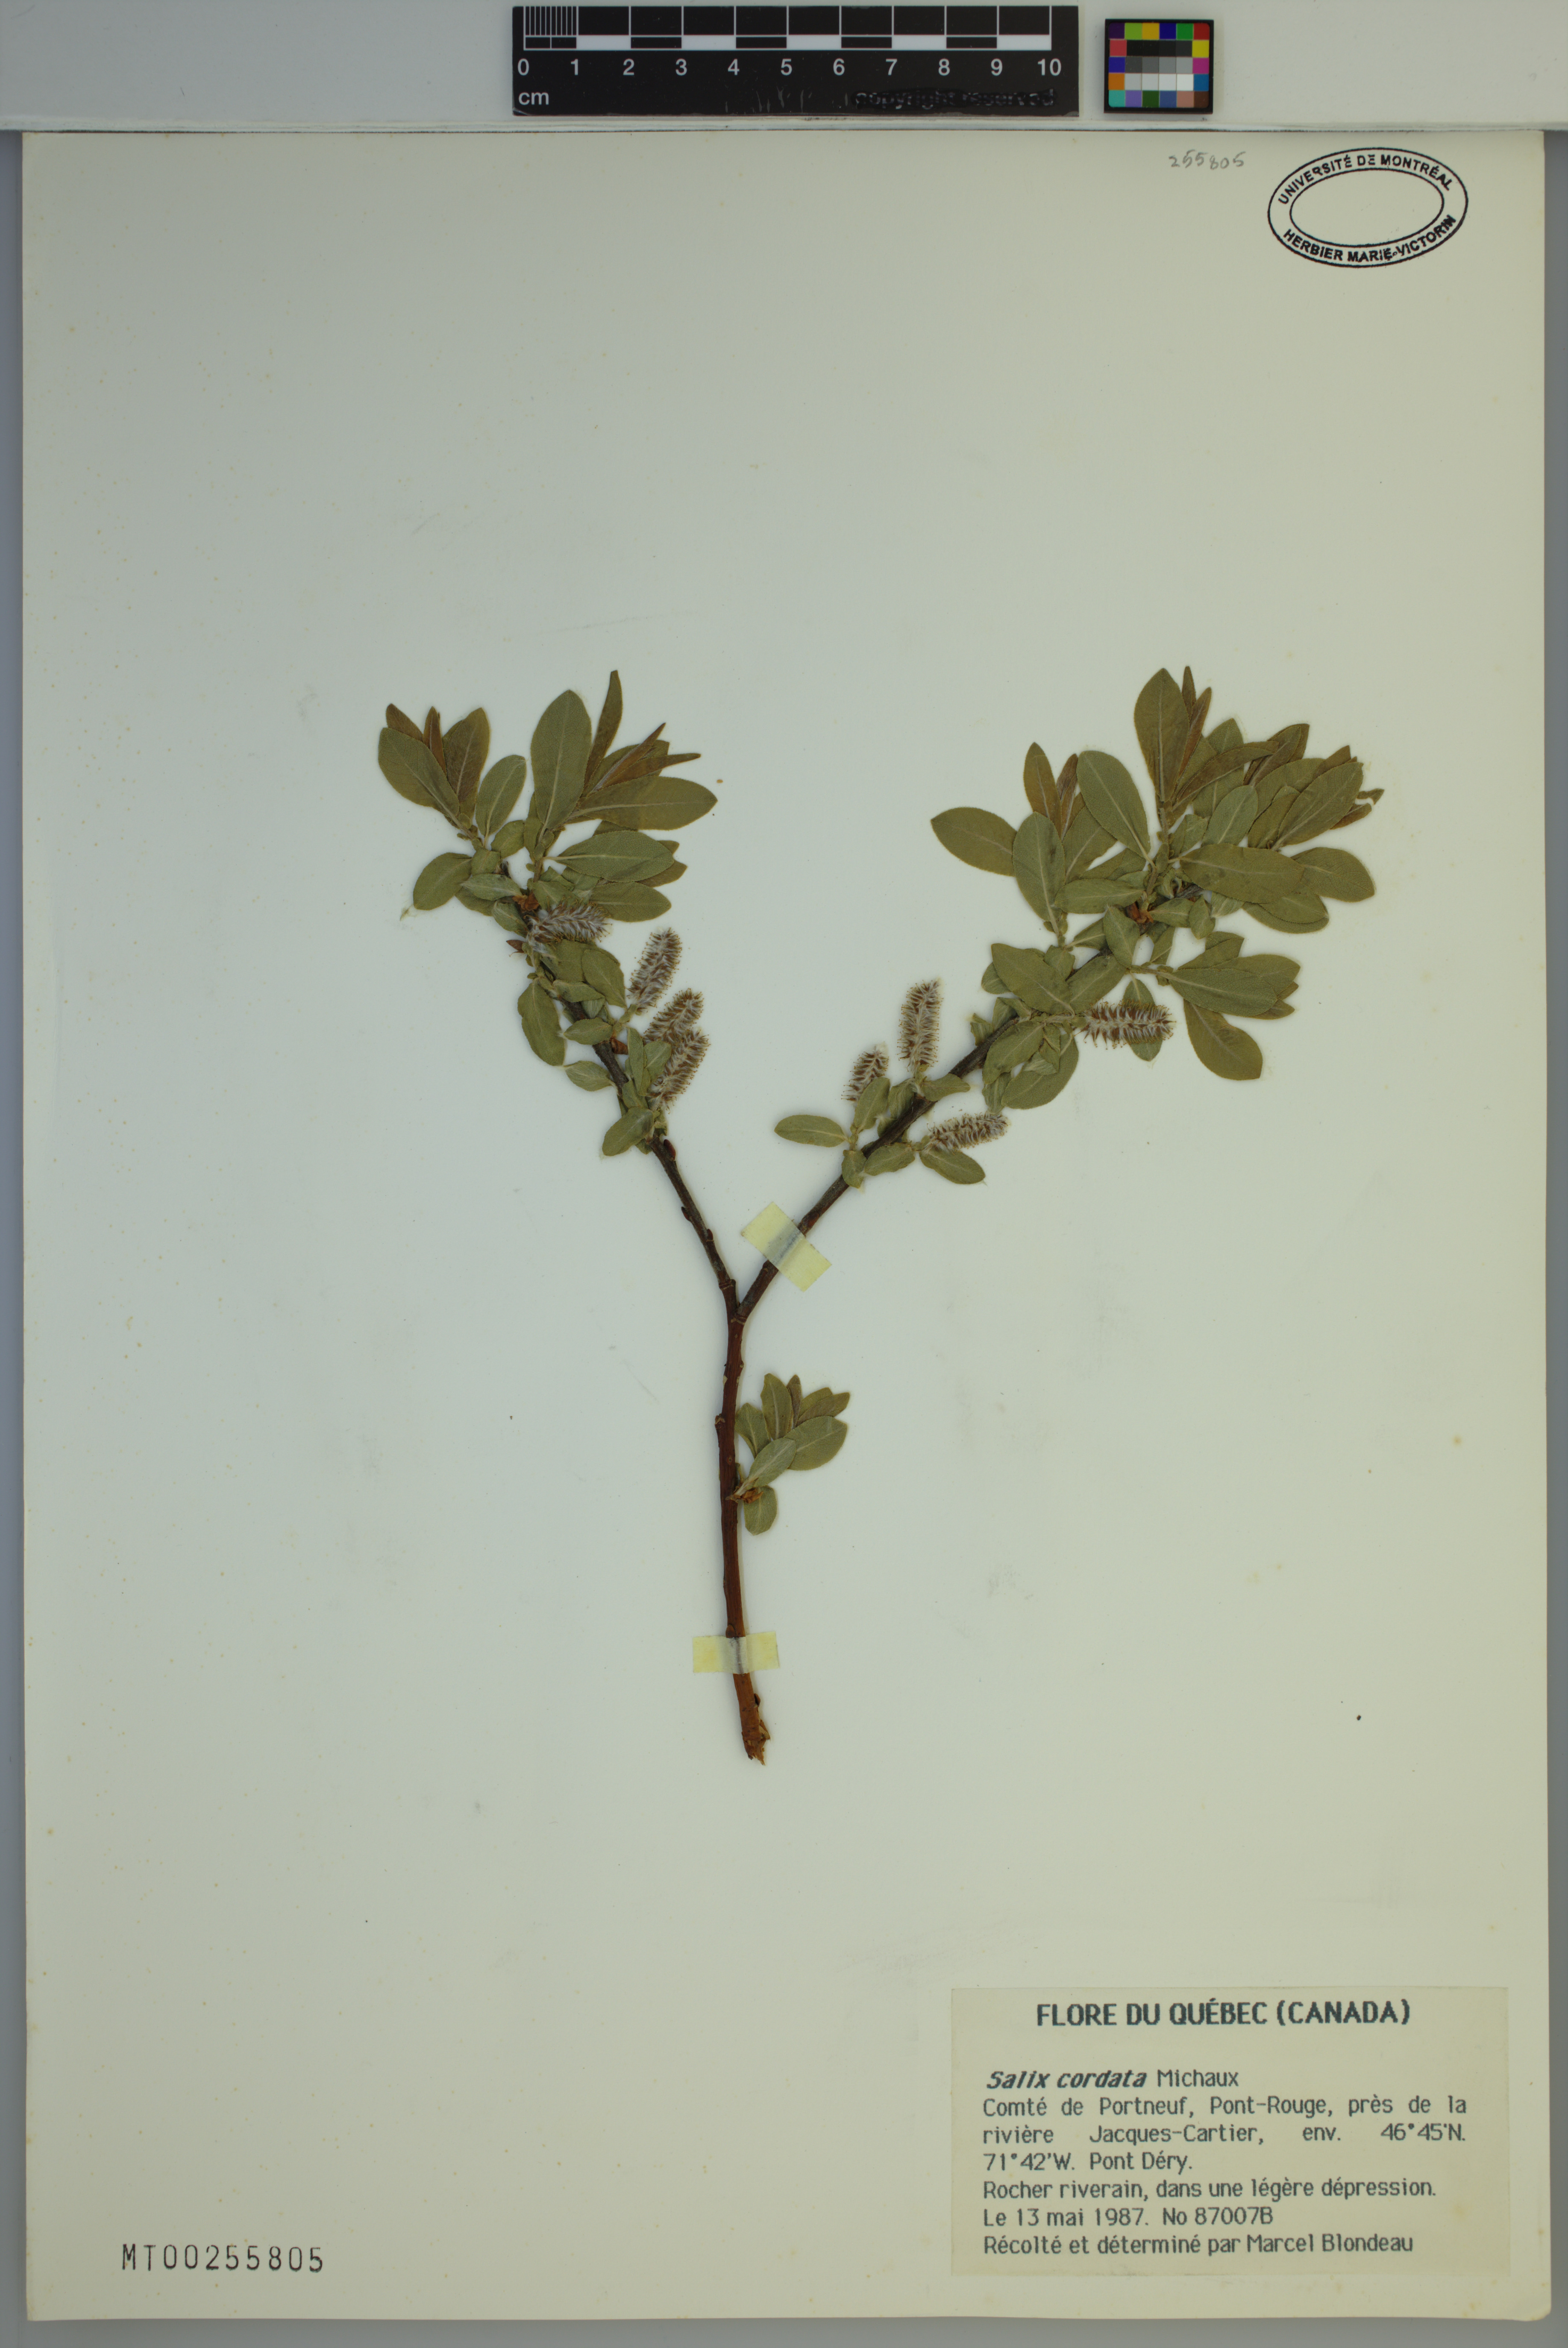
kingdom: Plantae
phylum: Tracheophyta
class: Magnoliopsida
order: Malpighiales
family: Salicaceae
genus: Salix
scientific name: Salix cordata
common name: Heart-leaf willow
